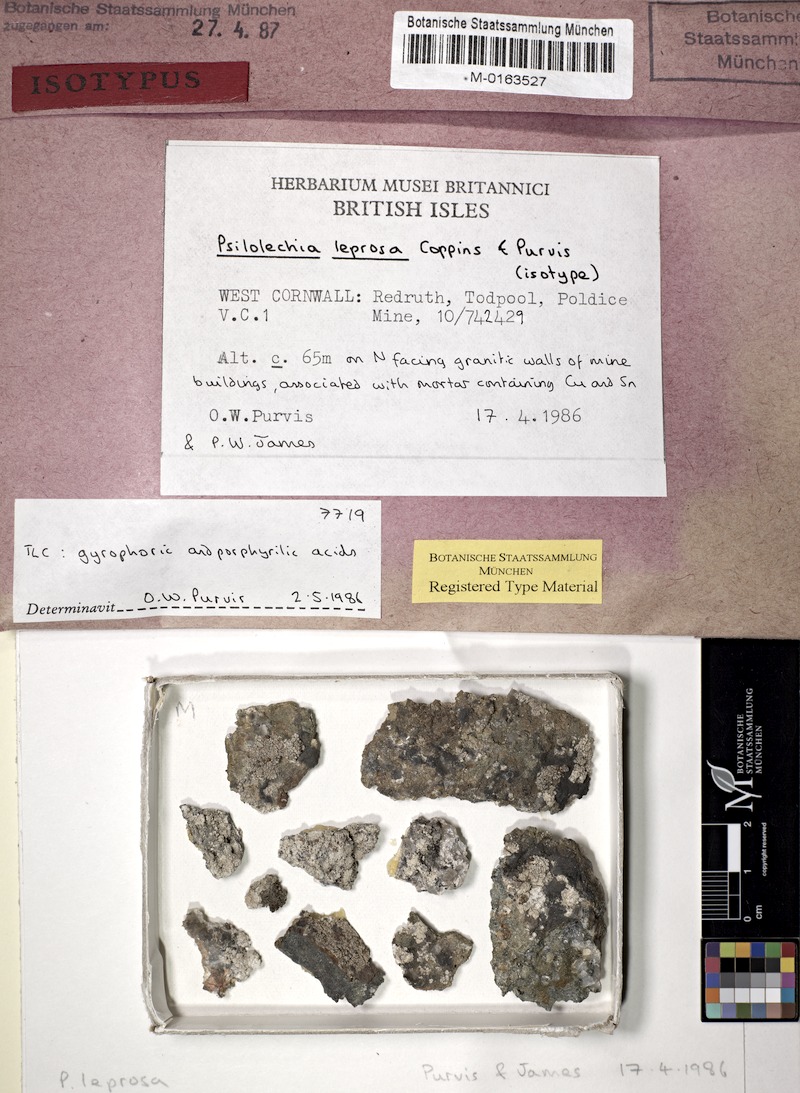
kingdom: Fungi
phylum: Ascomycota
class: Lecanoromycetes
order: Lecanorales
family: Psilolechiaceae
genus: Psilolechia
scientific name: Psilolechia leprosa
